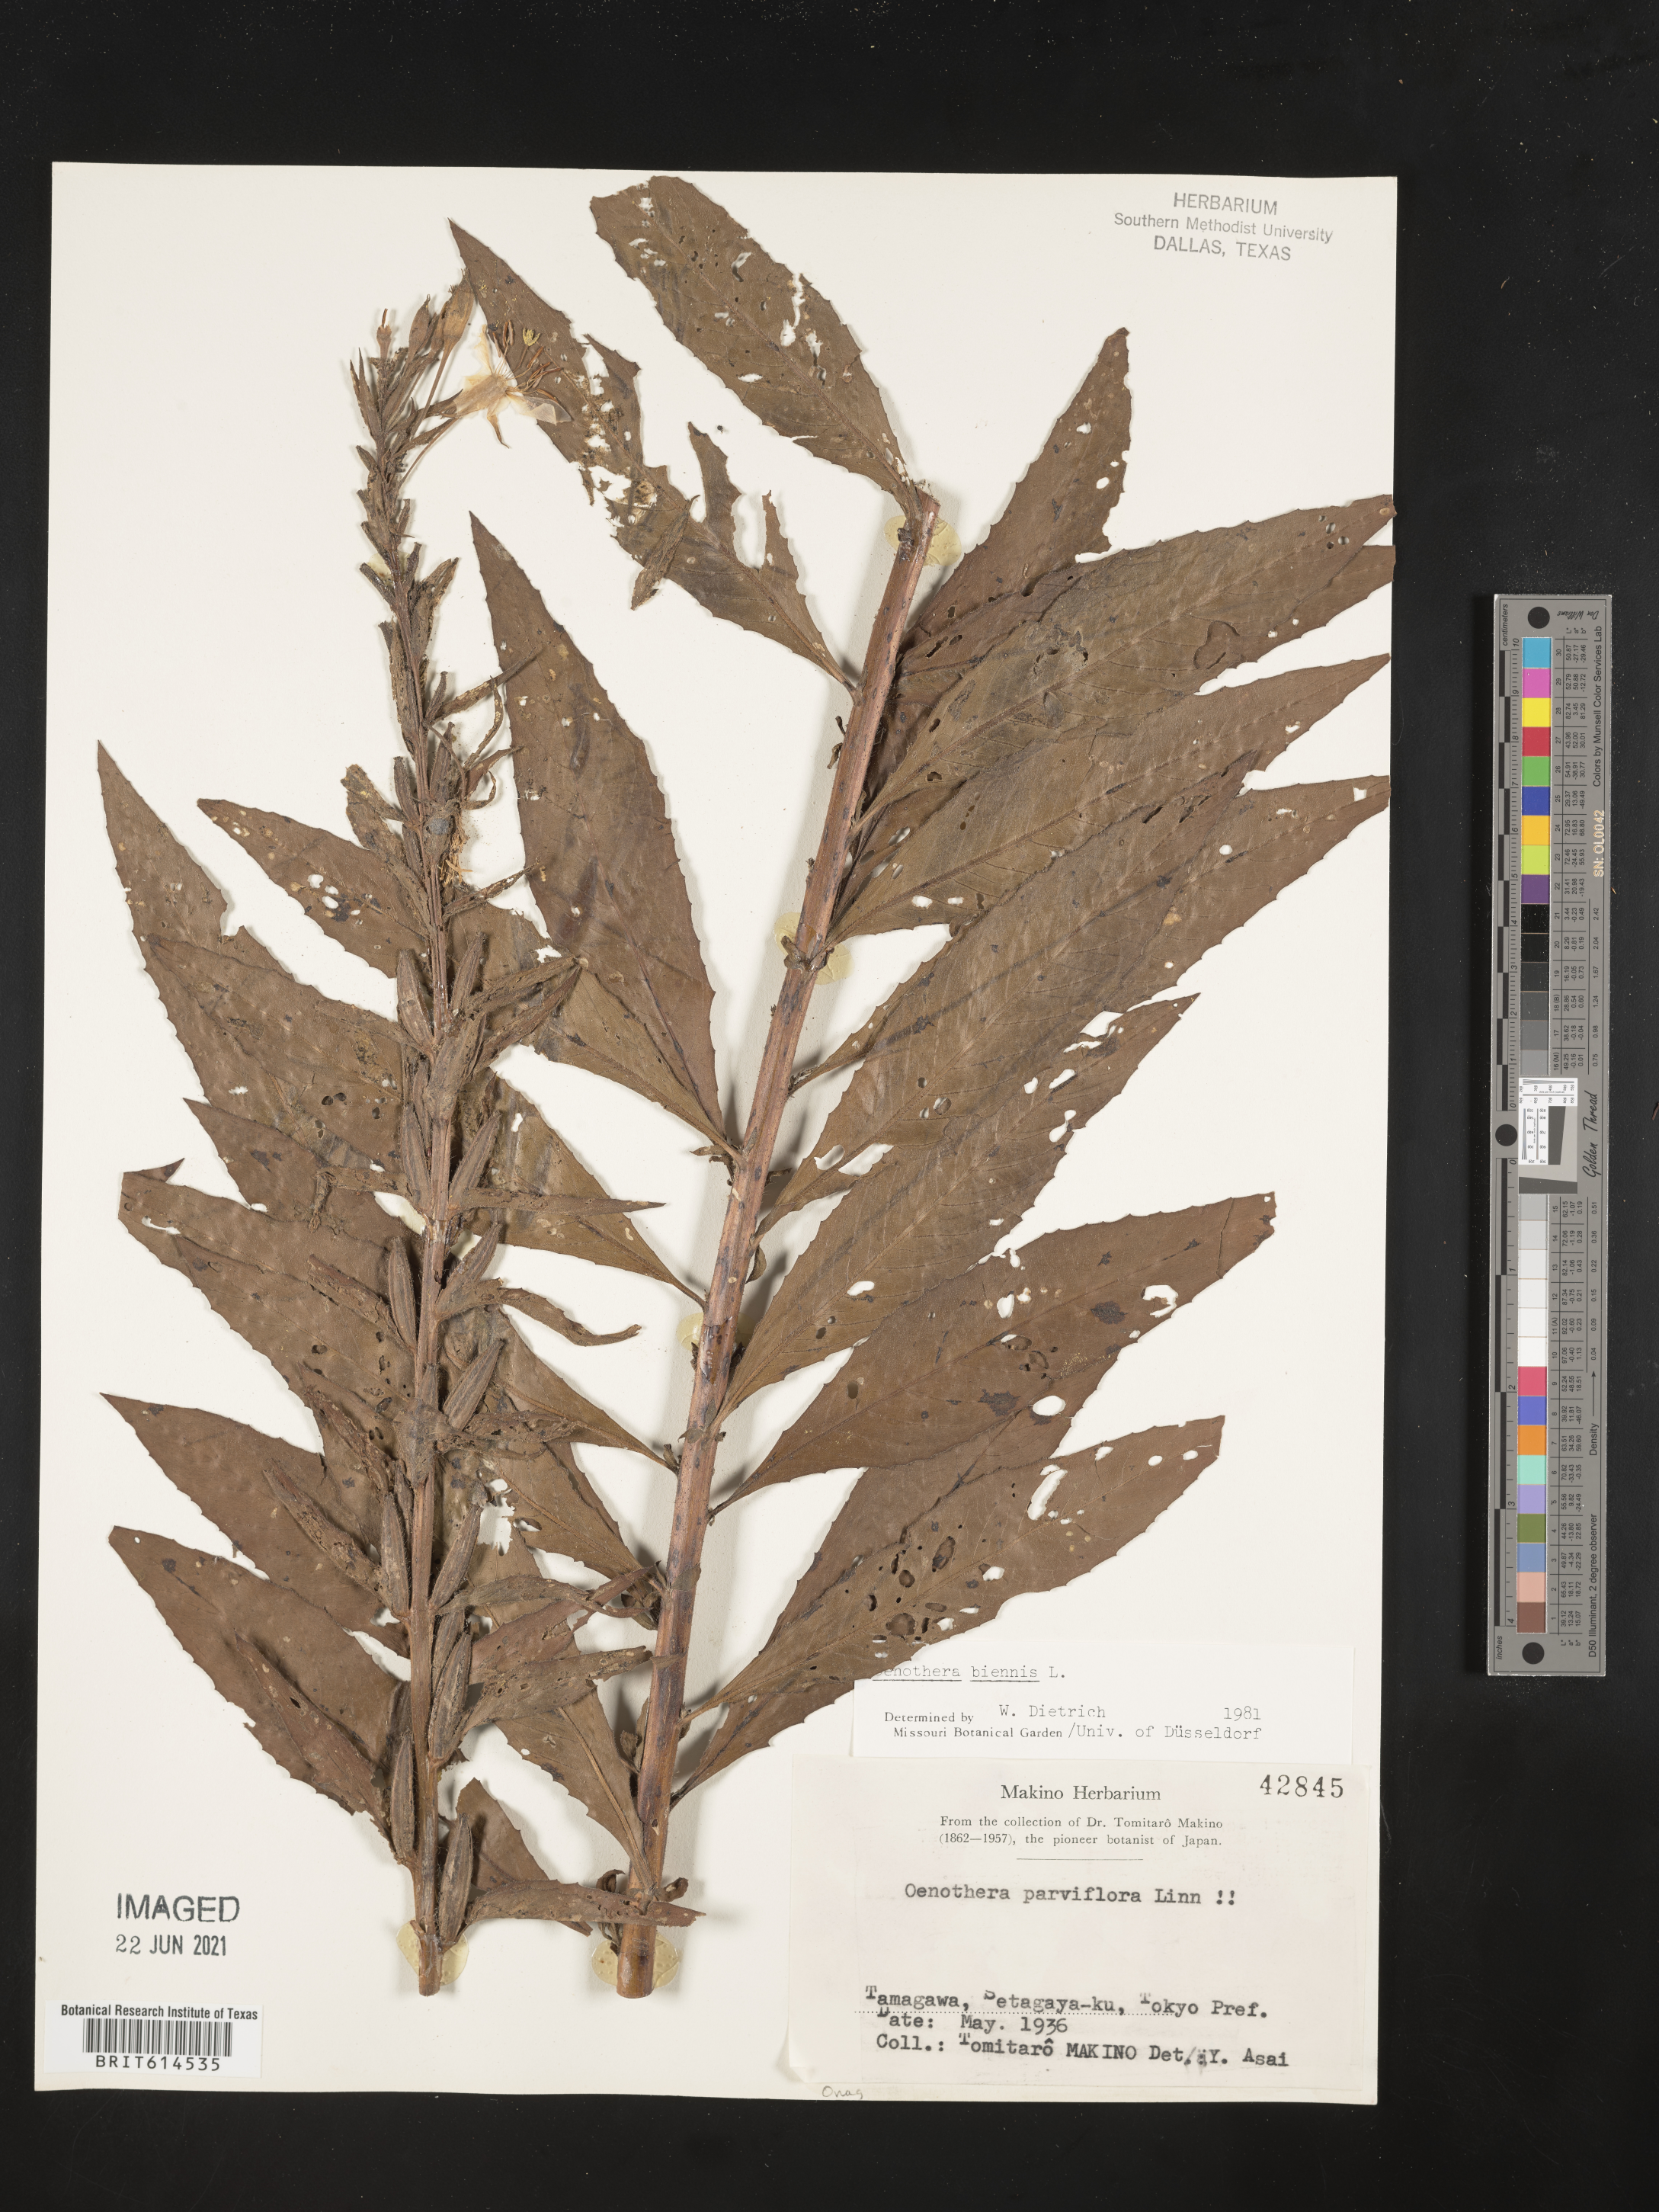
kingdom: Plantae
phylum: Tracheophyta
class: Magnoliopsida
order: Myrtales
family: Onagraceae
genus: Oenothera
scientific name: Oenothera biennis
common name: Common evening-primrose
